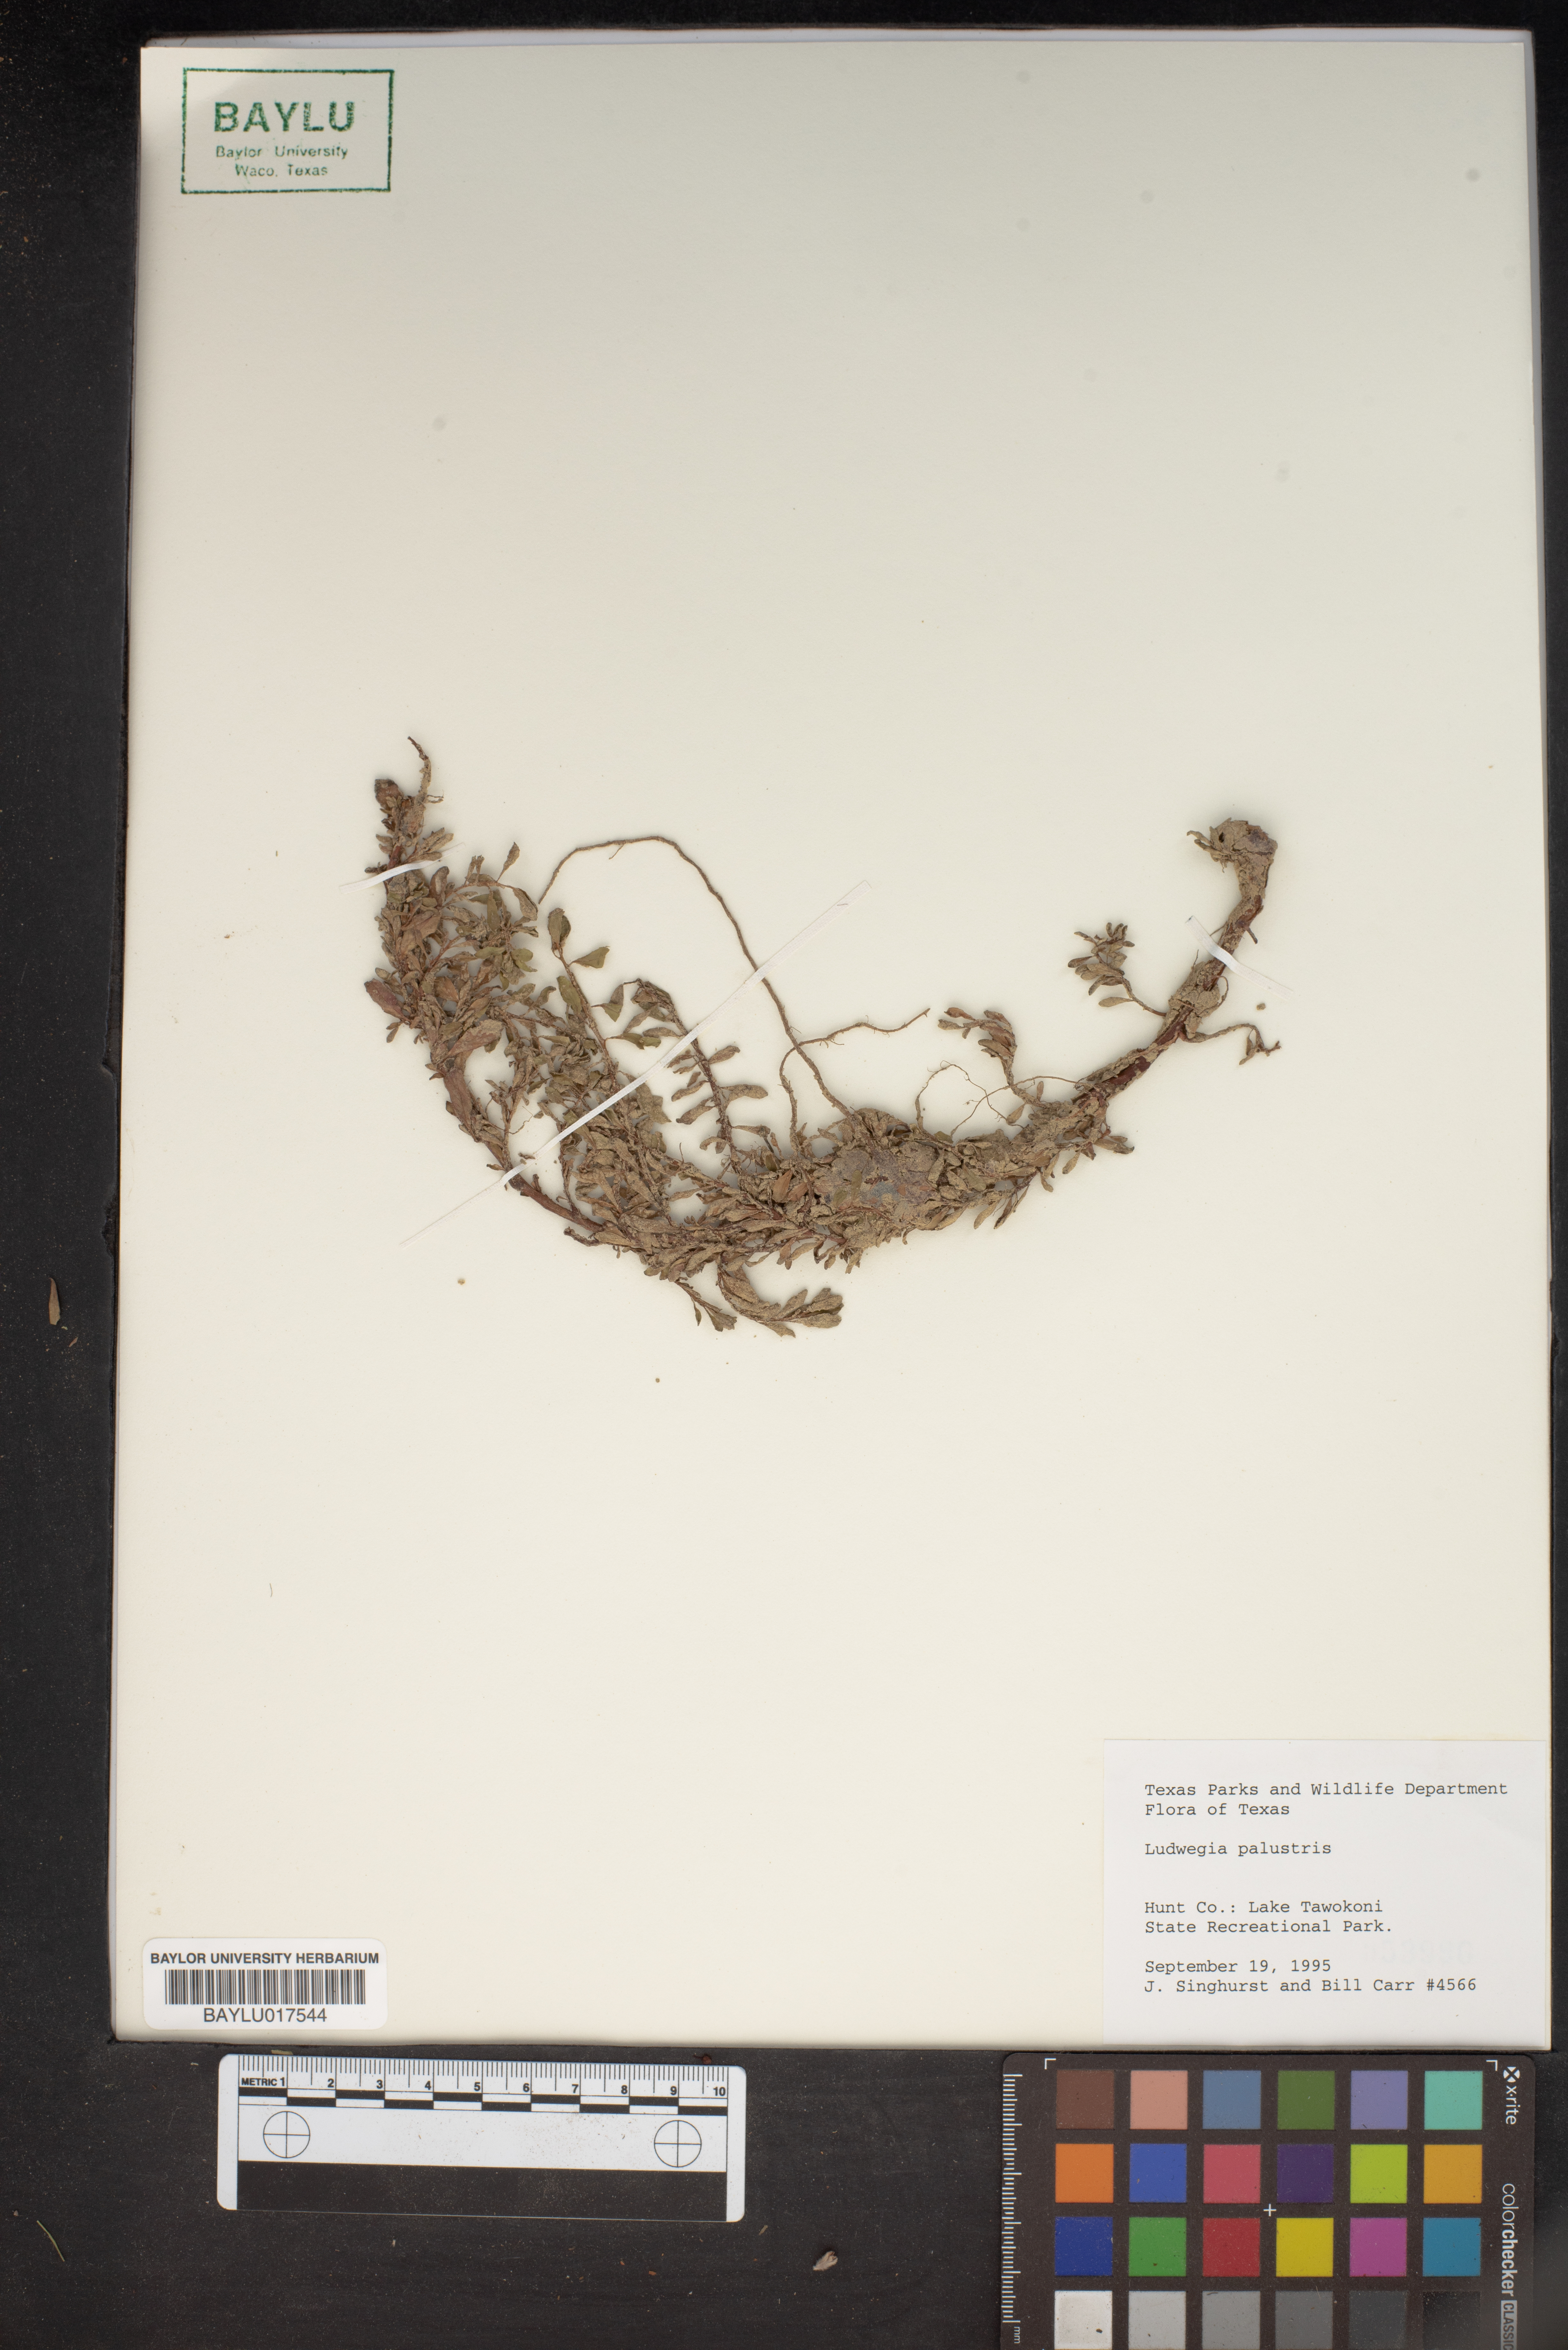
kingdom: Plantae
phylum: Tracheophyta
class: Magnoliopsida
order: Myrtales
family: Onagraceae
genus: Ludwigia
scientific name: Ludwigia palustris
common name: Hampshire-purslane
